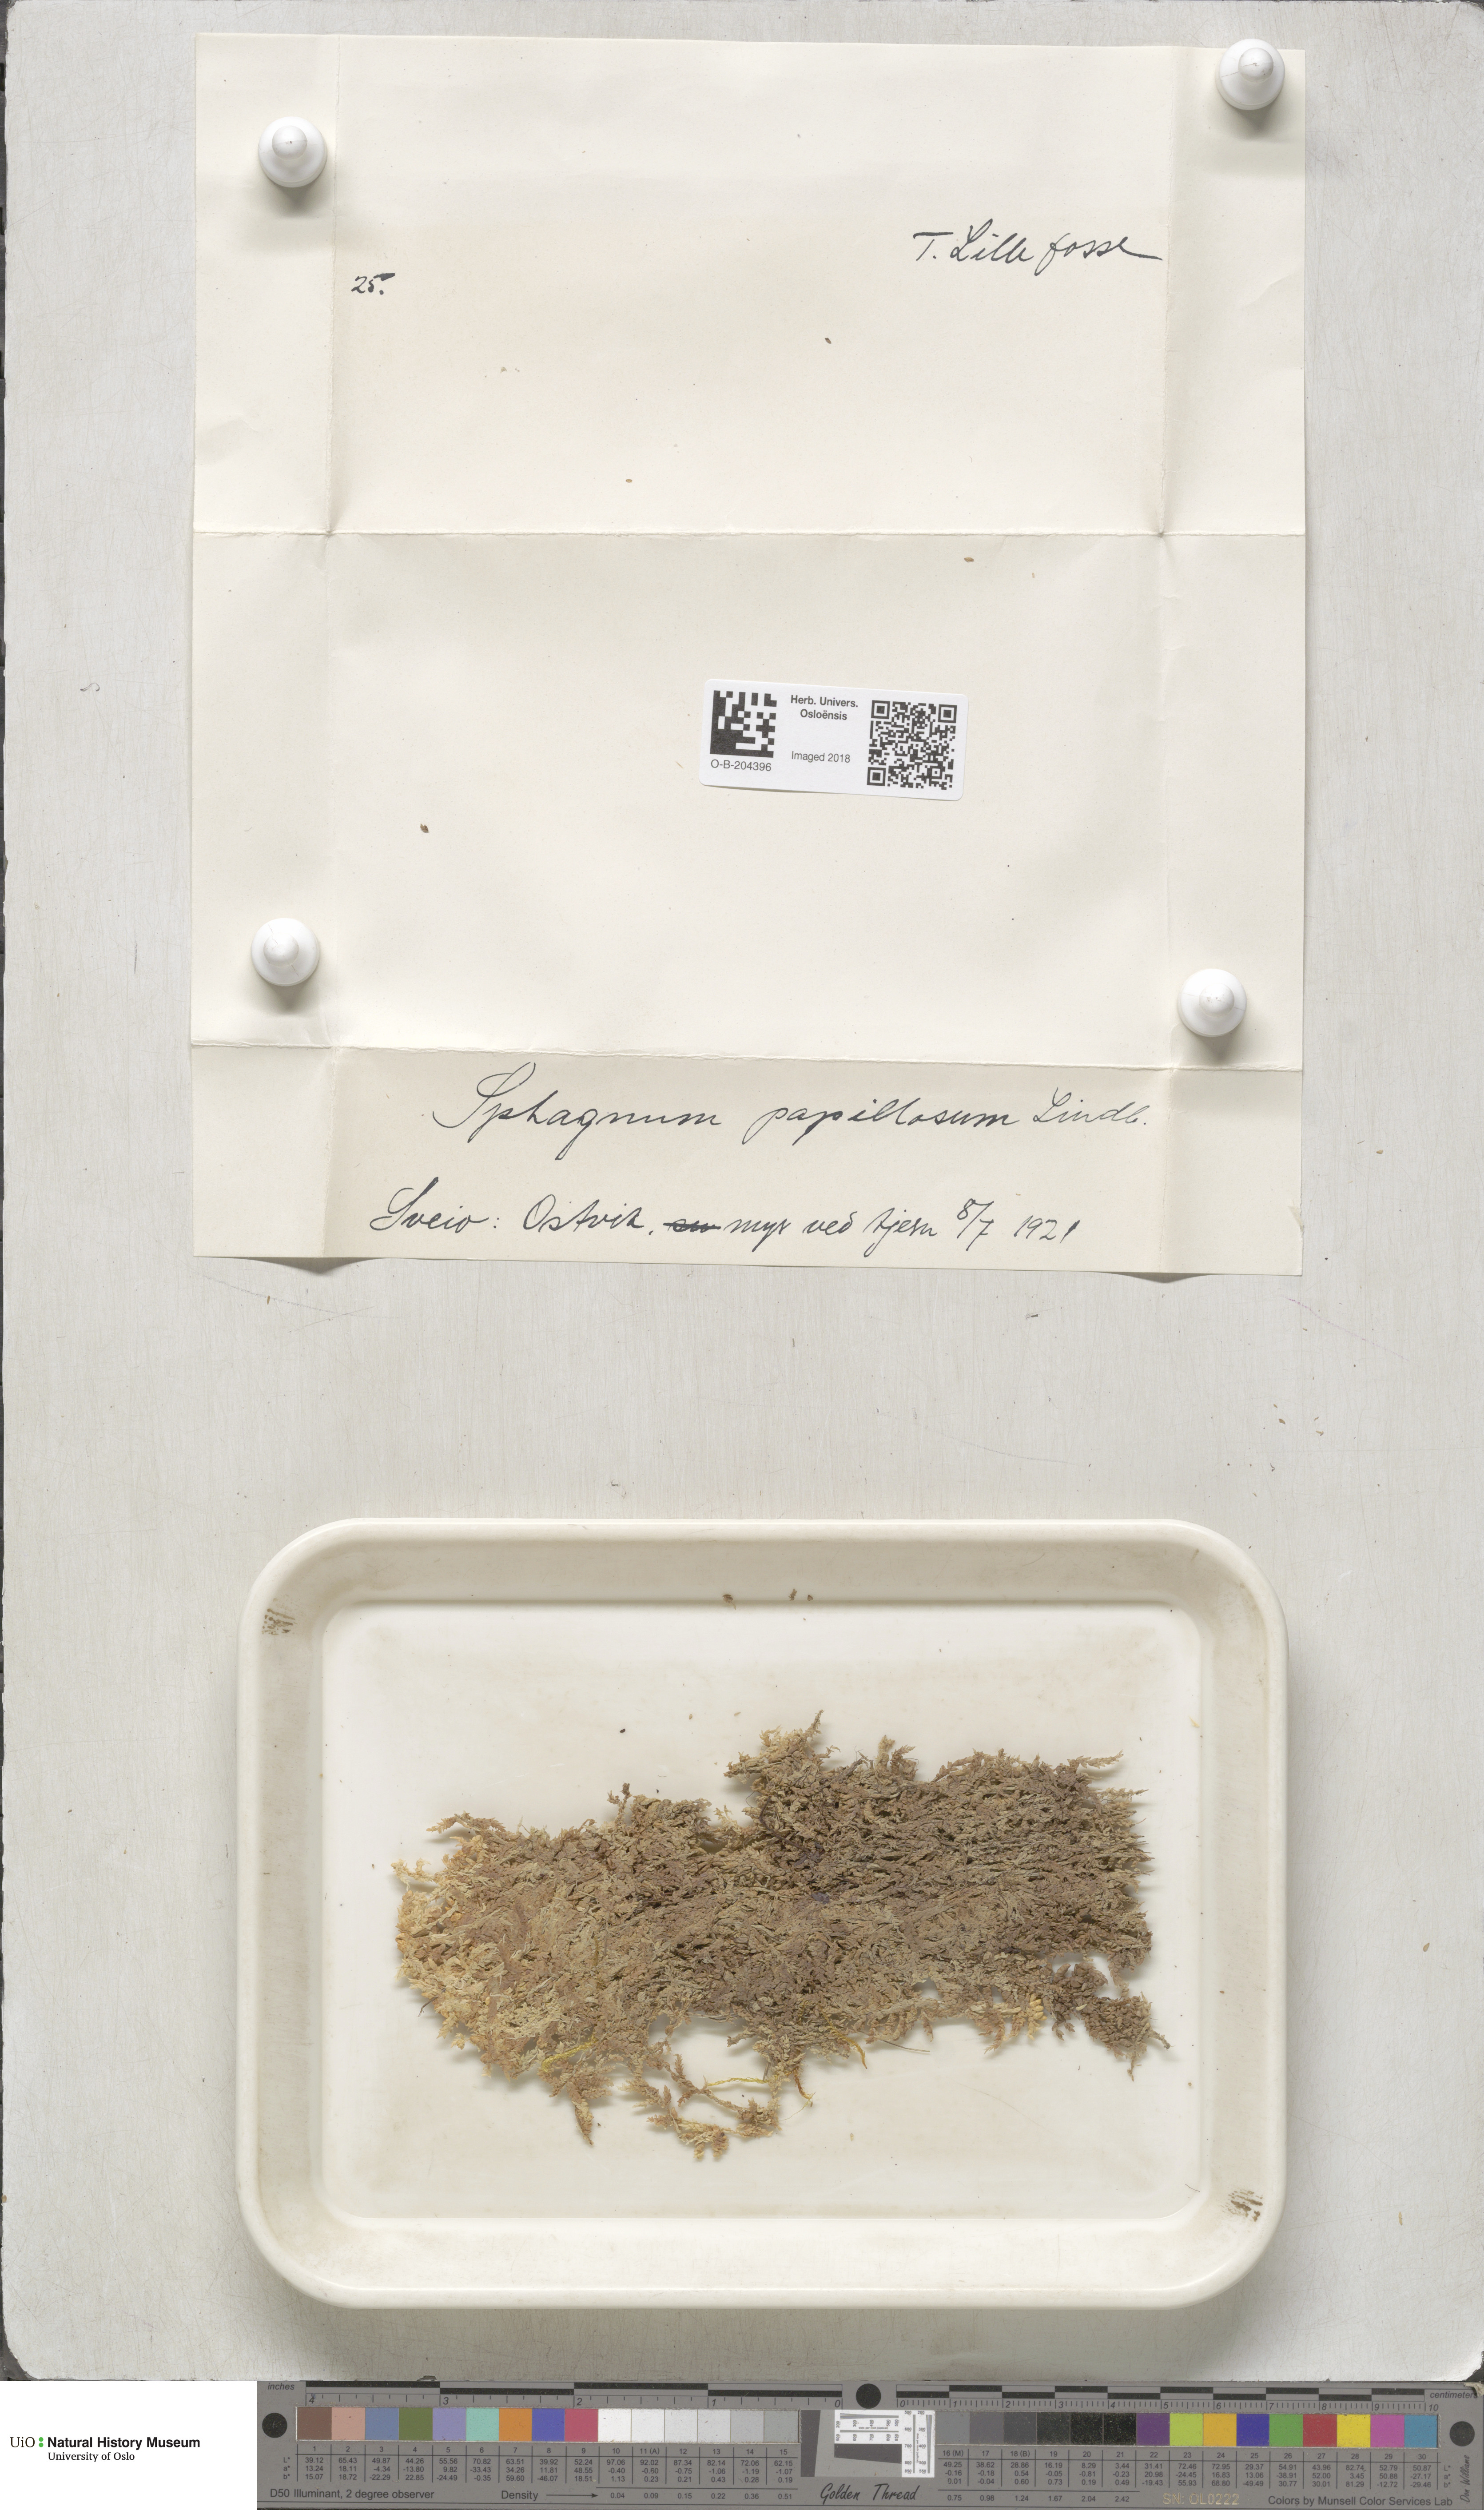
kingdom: Plantae
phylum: Bryophyta
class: Sphagnopsida
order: Sphagnales
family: Sphagnaceae
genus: Sphagnum
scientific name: Sphagnum papillosum
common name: Papillose peat moss
